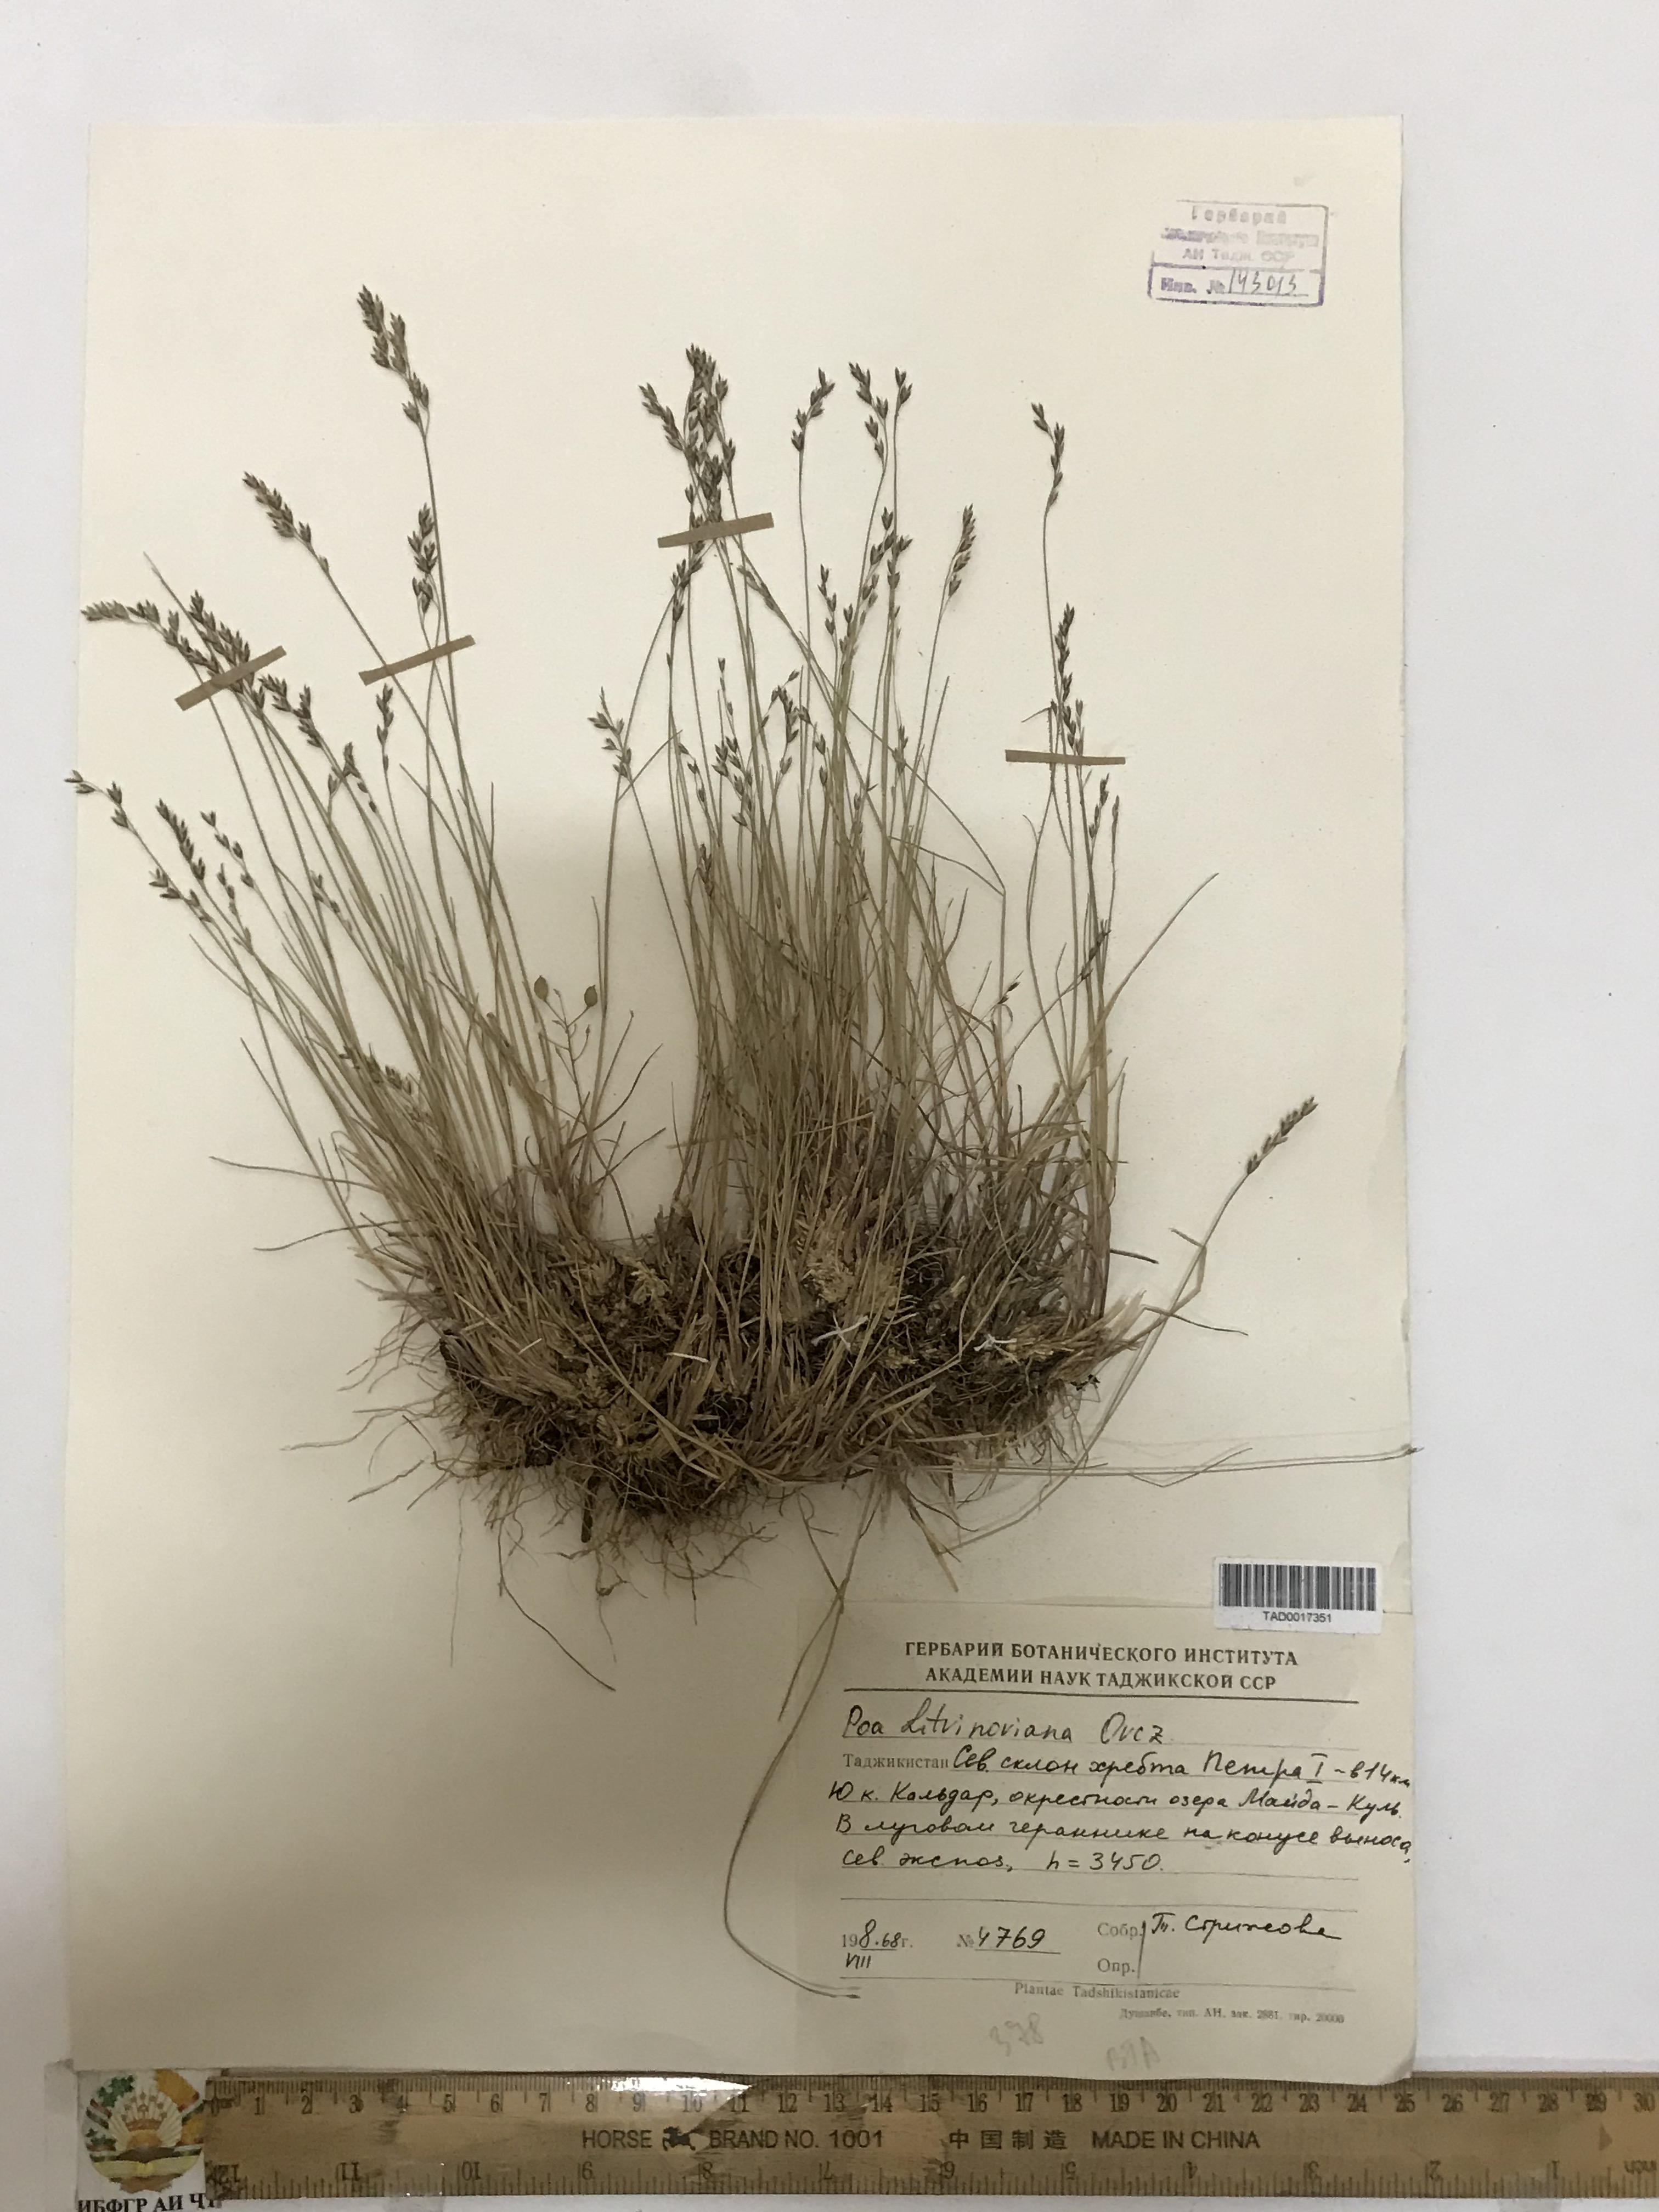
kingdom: Plantae
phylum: Tracheophyta
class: Liliopsida
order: Poales
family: Poaceae
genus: Poa
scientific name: Poa glauca
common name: Glaucous bluegrass
